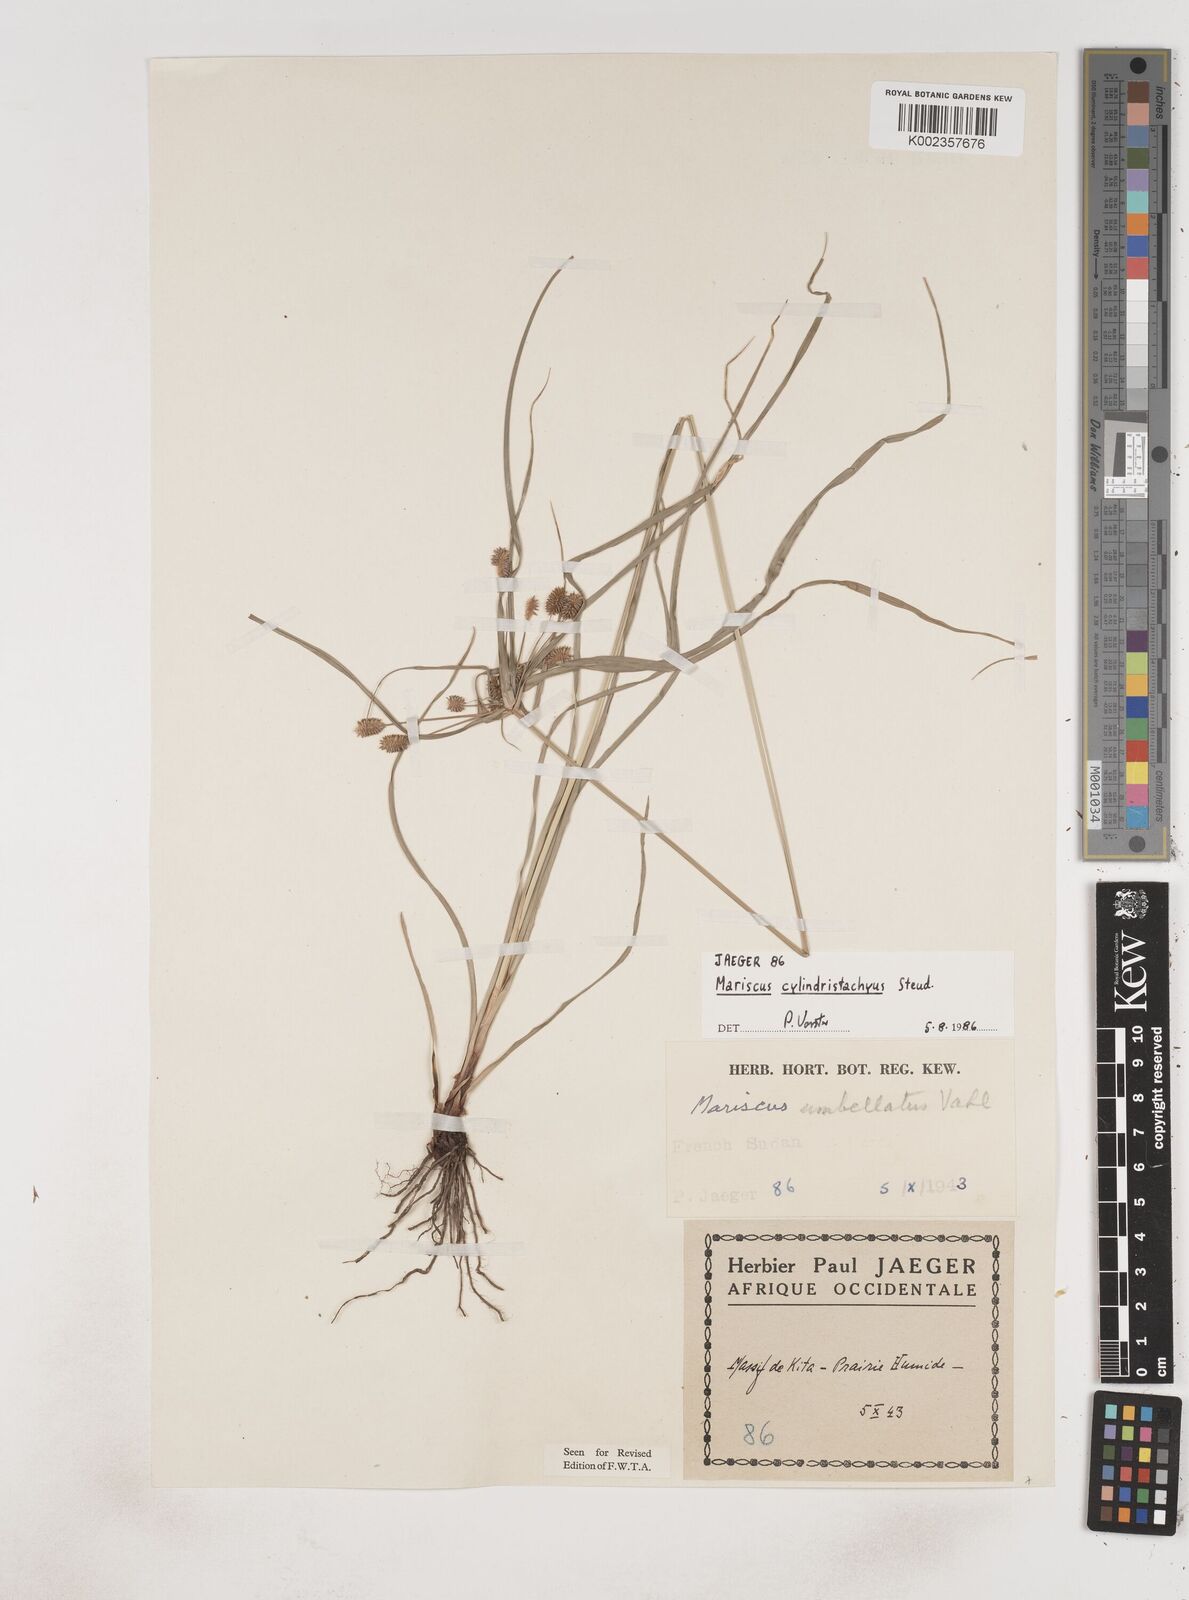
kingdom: Plantae
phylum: Tracheophyta
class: Liliopsida
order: Poales
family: Cyperaceae
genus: Cyperus
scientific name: Cyperus sublimis
